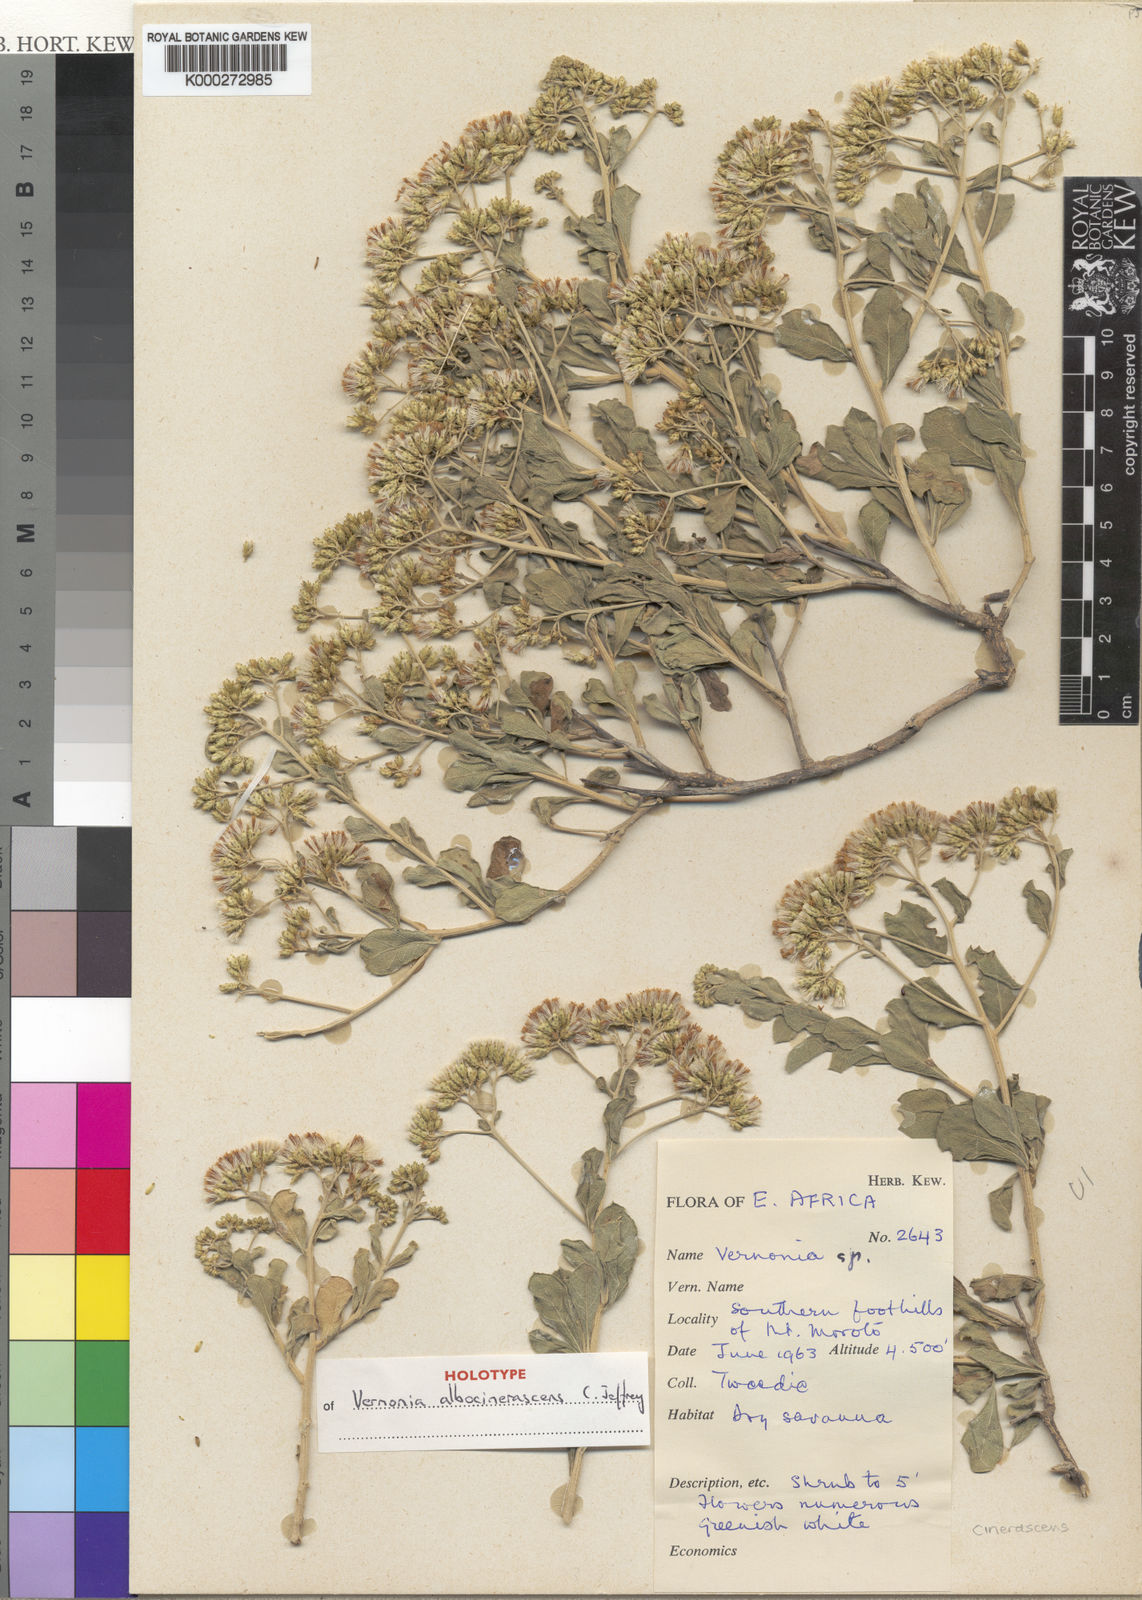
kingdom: Plantae
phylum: Tracheophyta
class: Magnoliopsida
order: Asterales
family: Asteraceae
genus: Orbivestus
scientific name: Orbivestus albocinerascens
